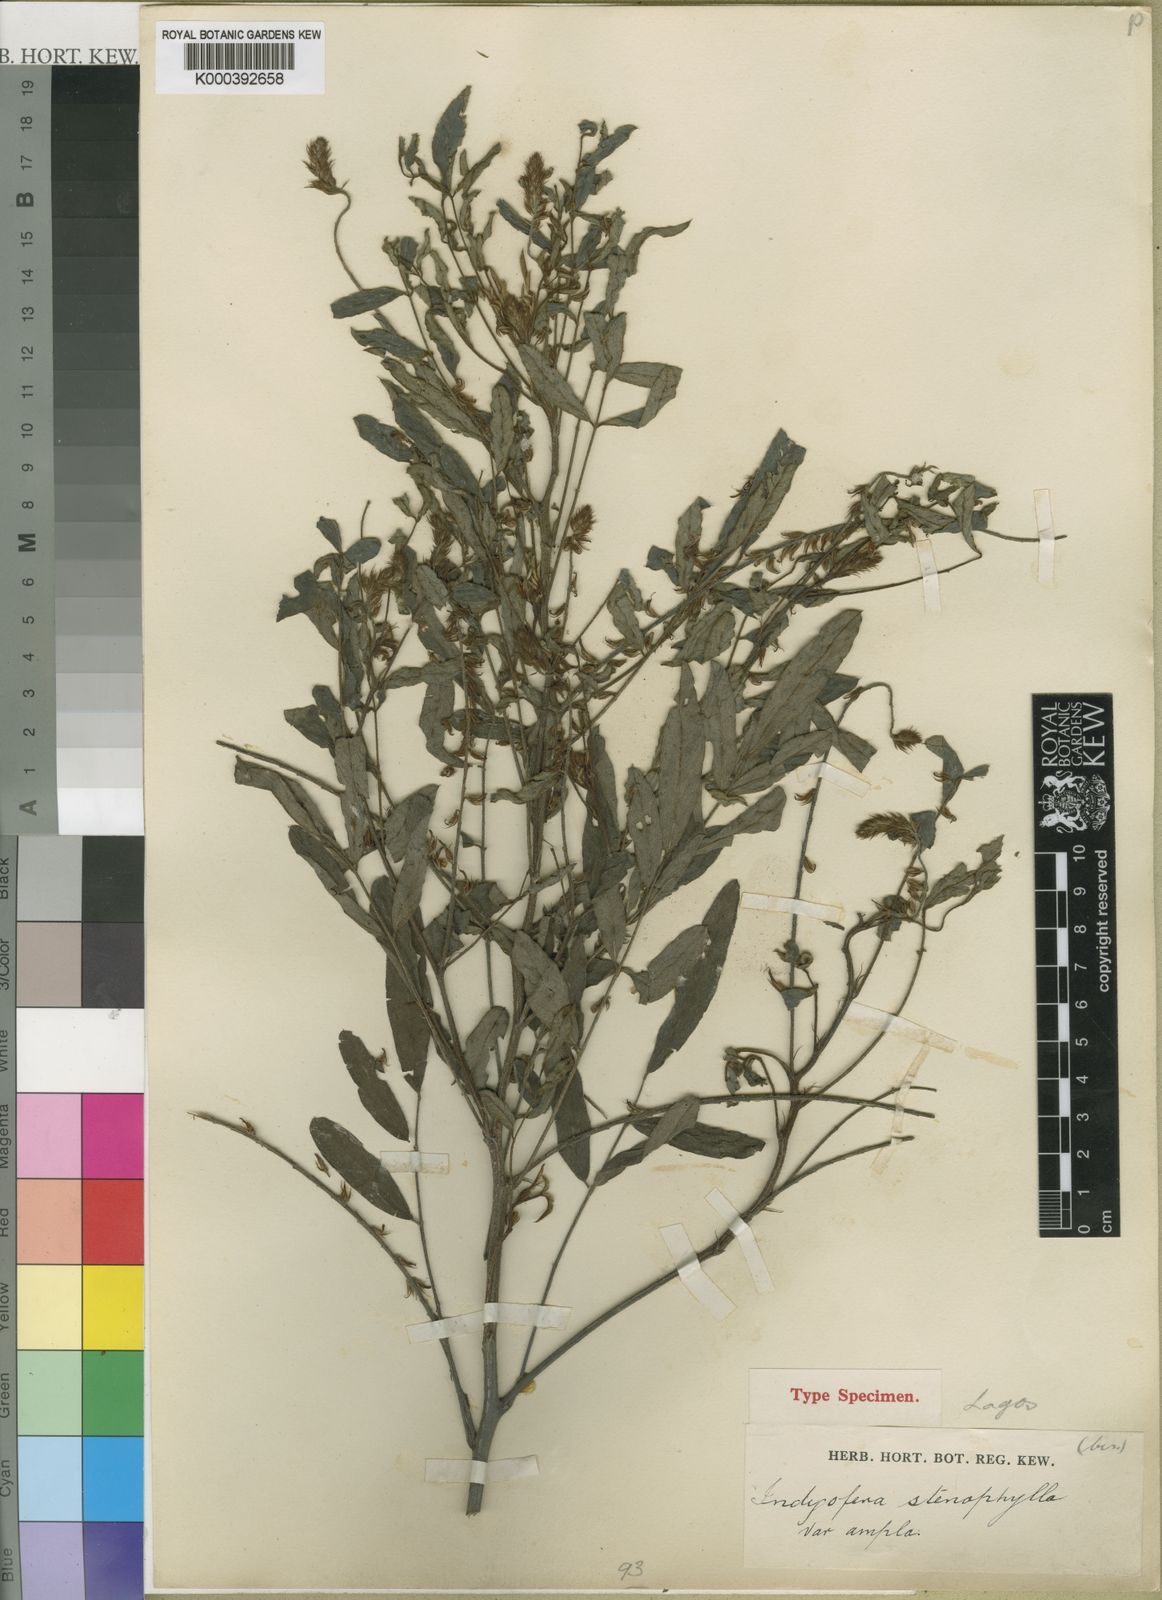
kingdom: Plantae
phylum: Tracheophyta
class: Magnoliopsida
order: Fabales
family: Fabaceae
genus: Indigofera
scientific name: Indigofera stenophylla
